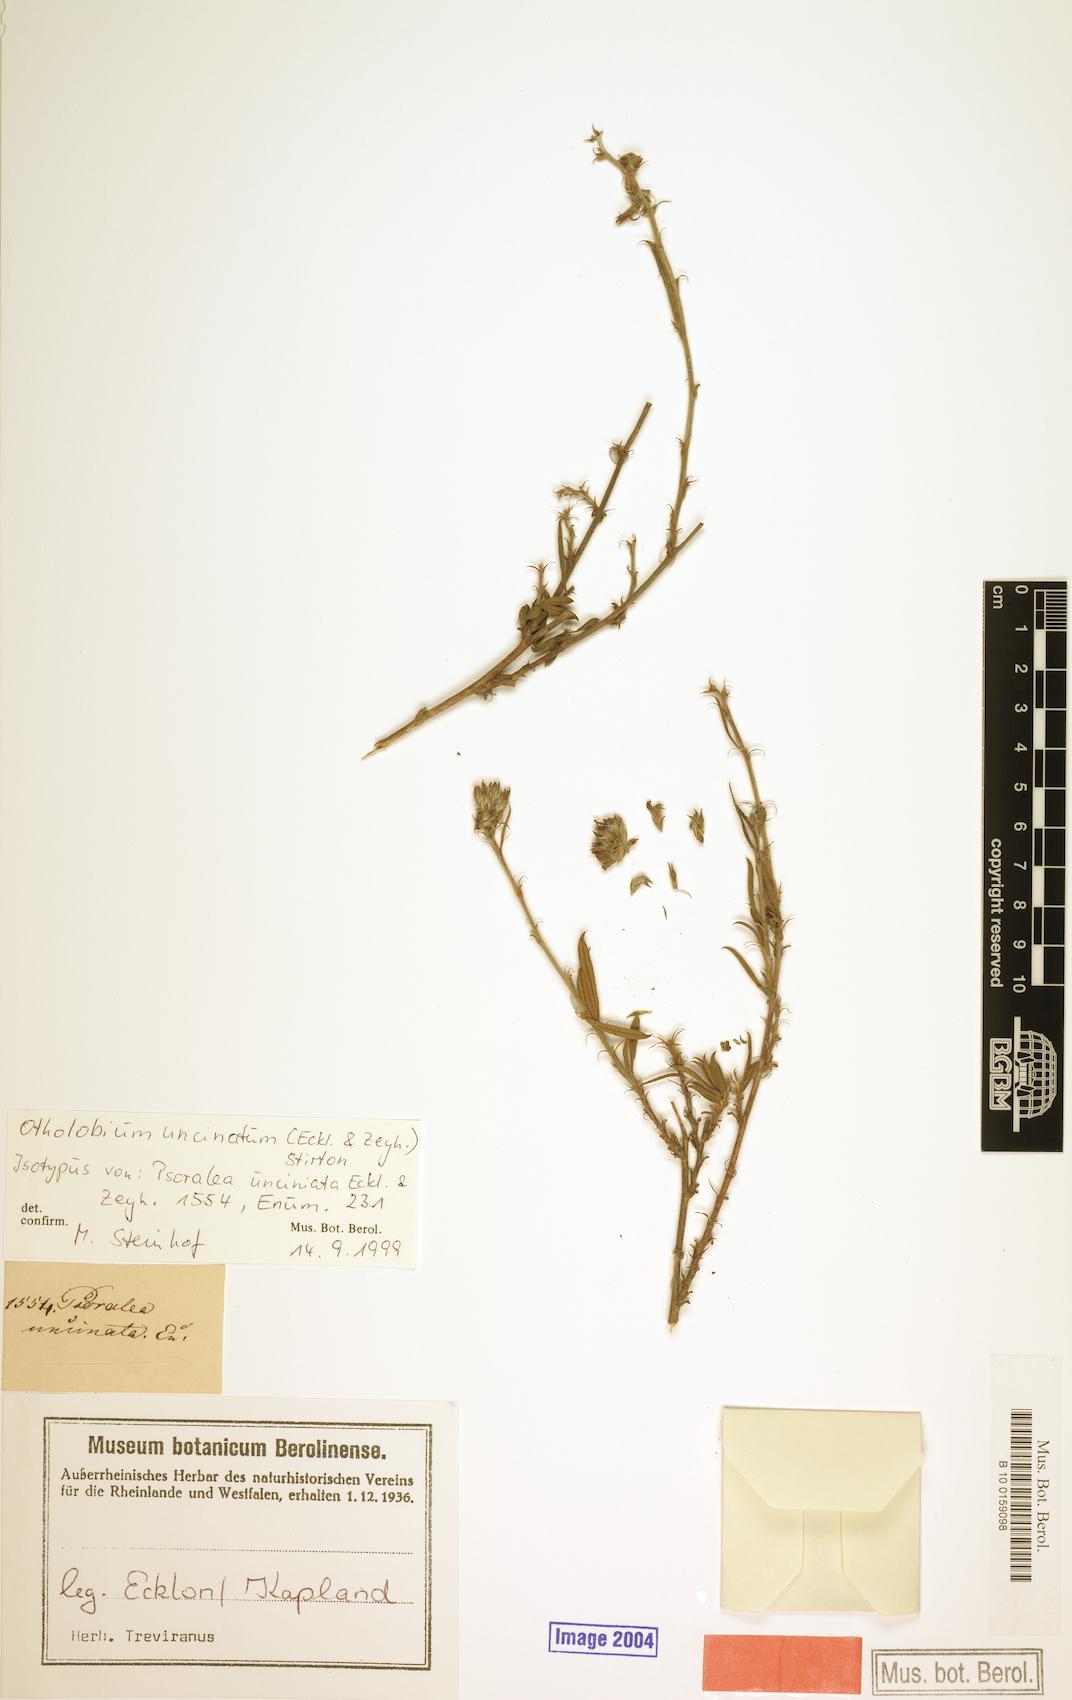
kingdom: Plantae
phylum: Tracheophyta
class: Magnoliopsida
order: Fabales
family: Fabaceae
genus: Psoralea
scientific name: Psoralea uncinata
